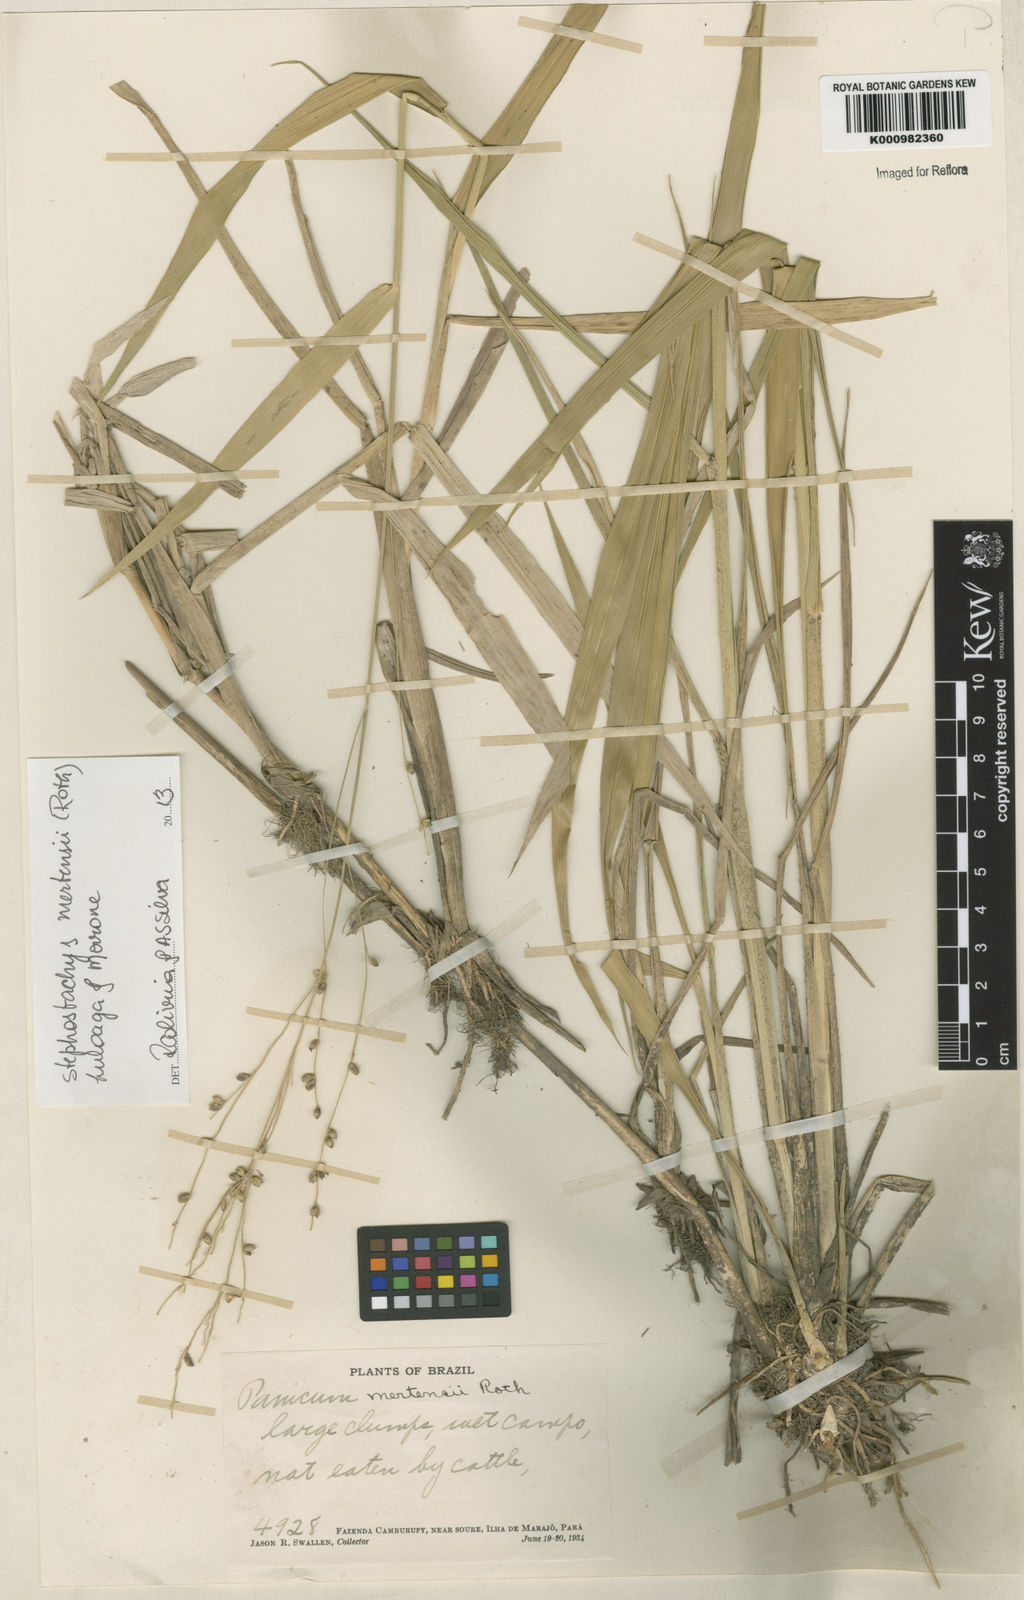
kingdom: Plantae
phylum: Tracheophyta
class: Liliopsida
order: Poales
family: Poaceae
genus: Stephostachys
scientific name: Stephostachys mertensii
